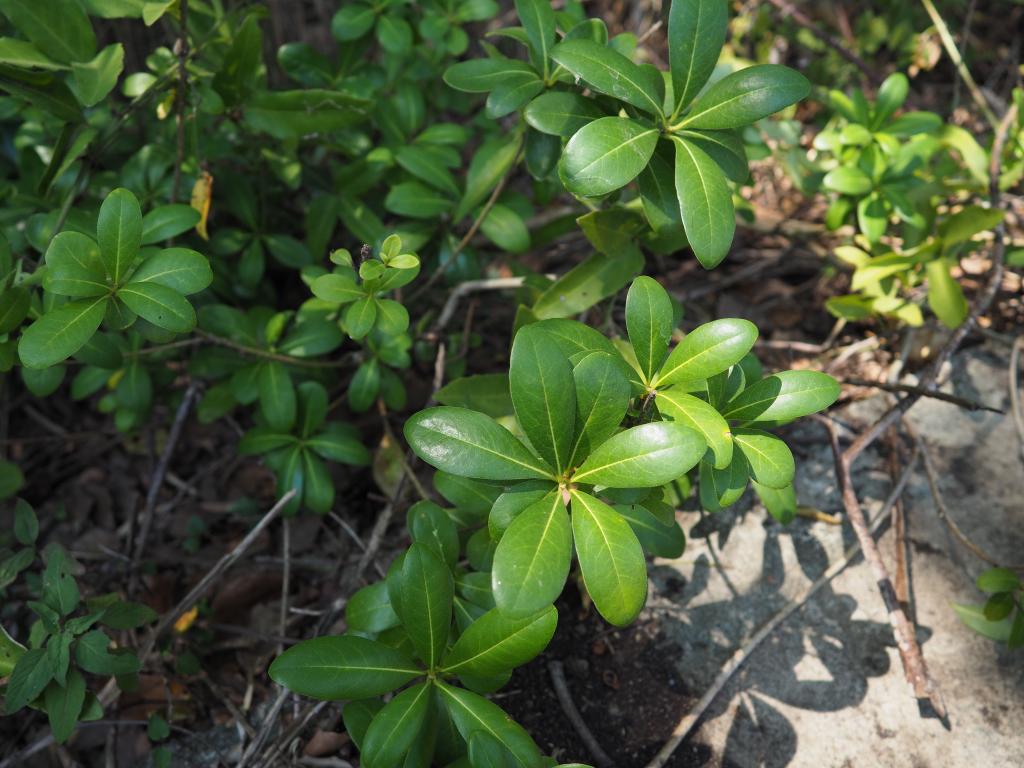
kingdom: Plantae
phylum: Tracheophyta
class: Magnoliopsida
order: Apiales
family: Pittosporaceae
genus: Pittosporum
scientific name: Pittosporum tobira
